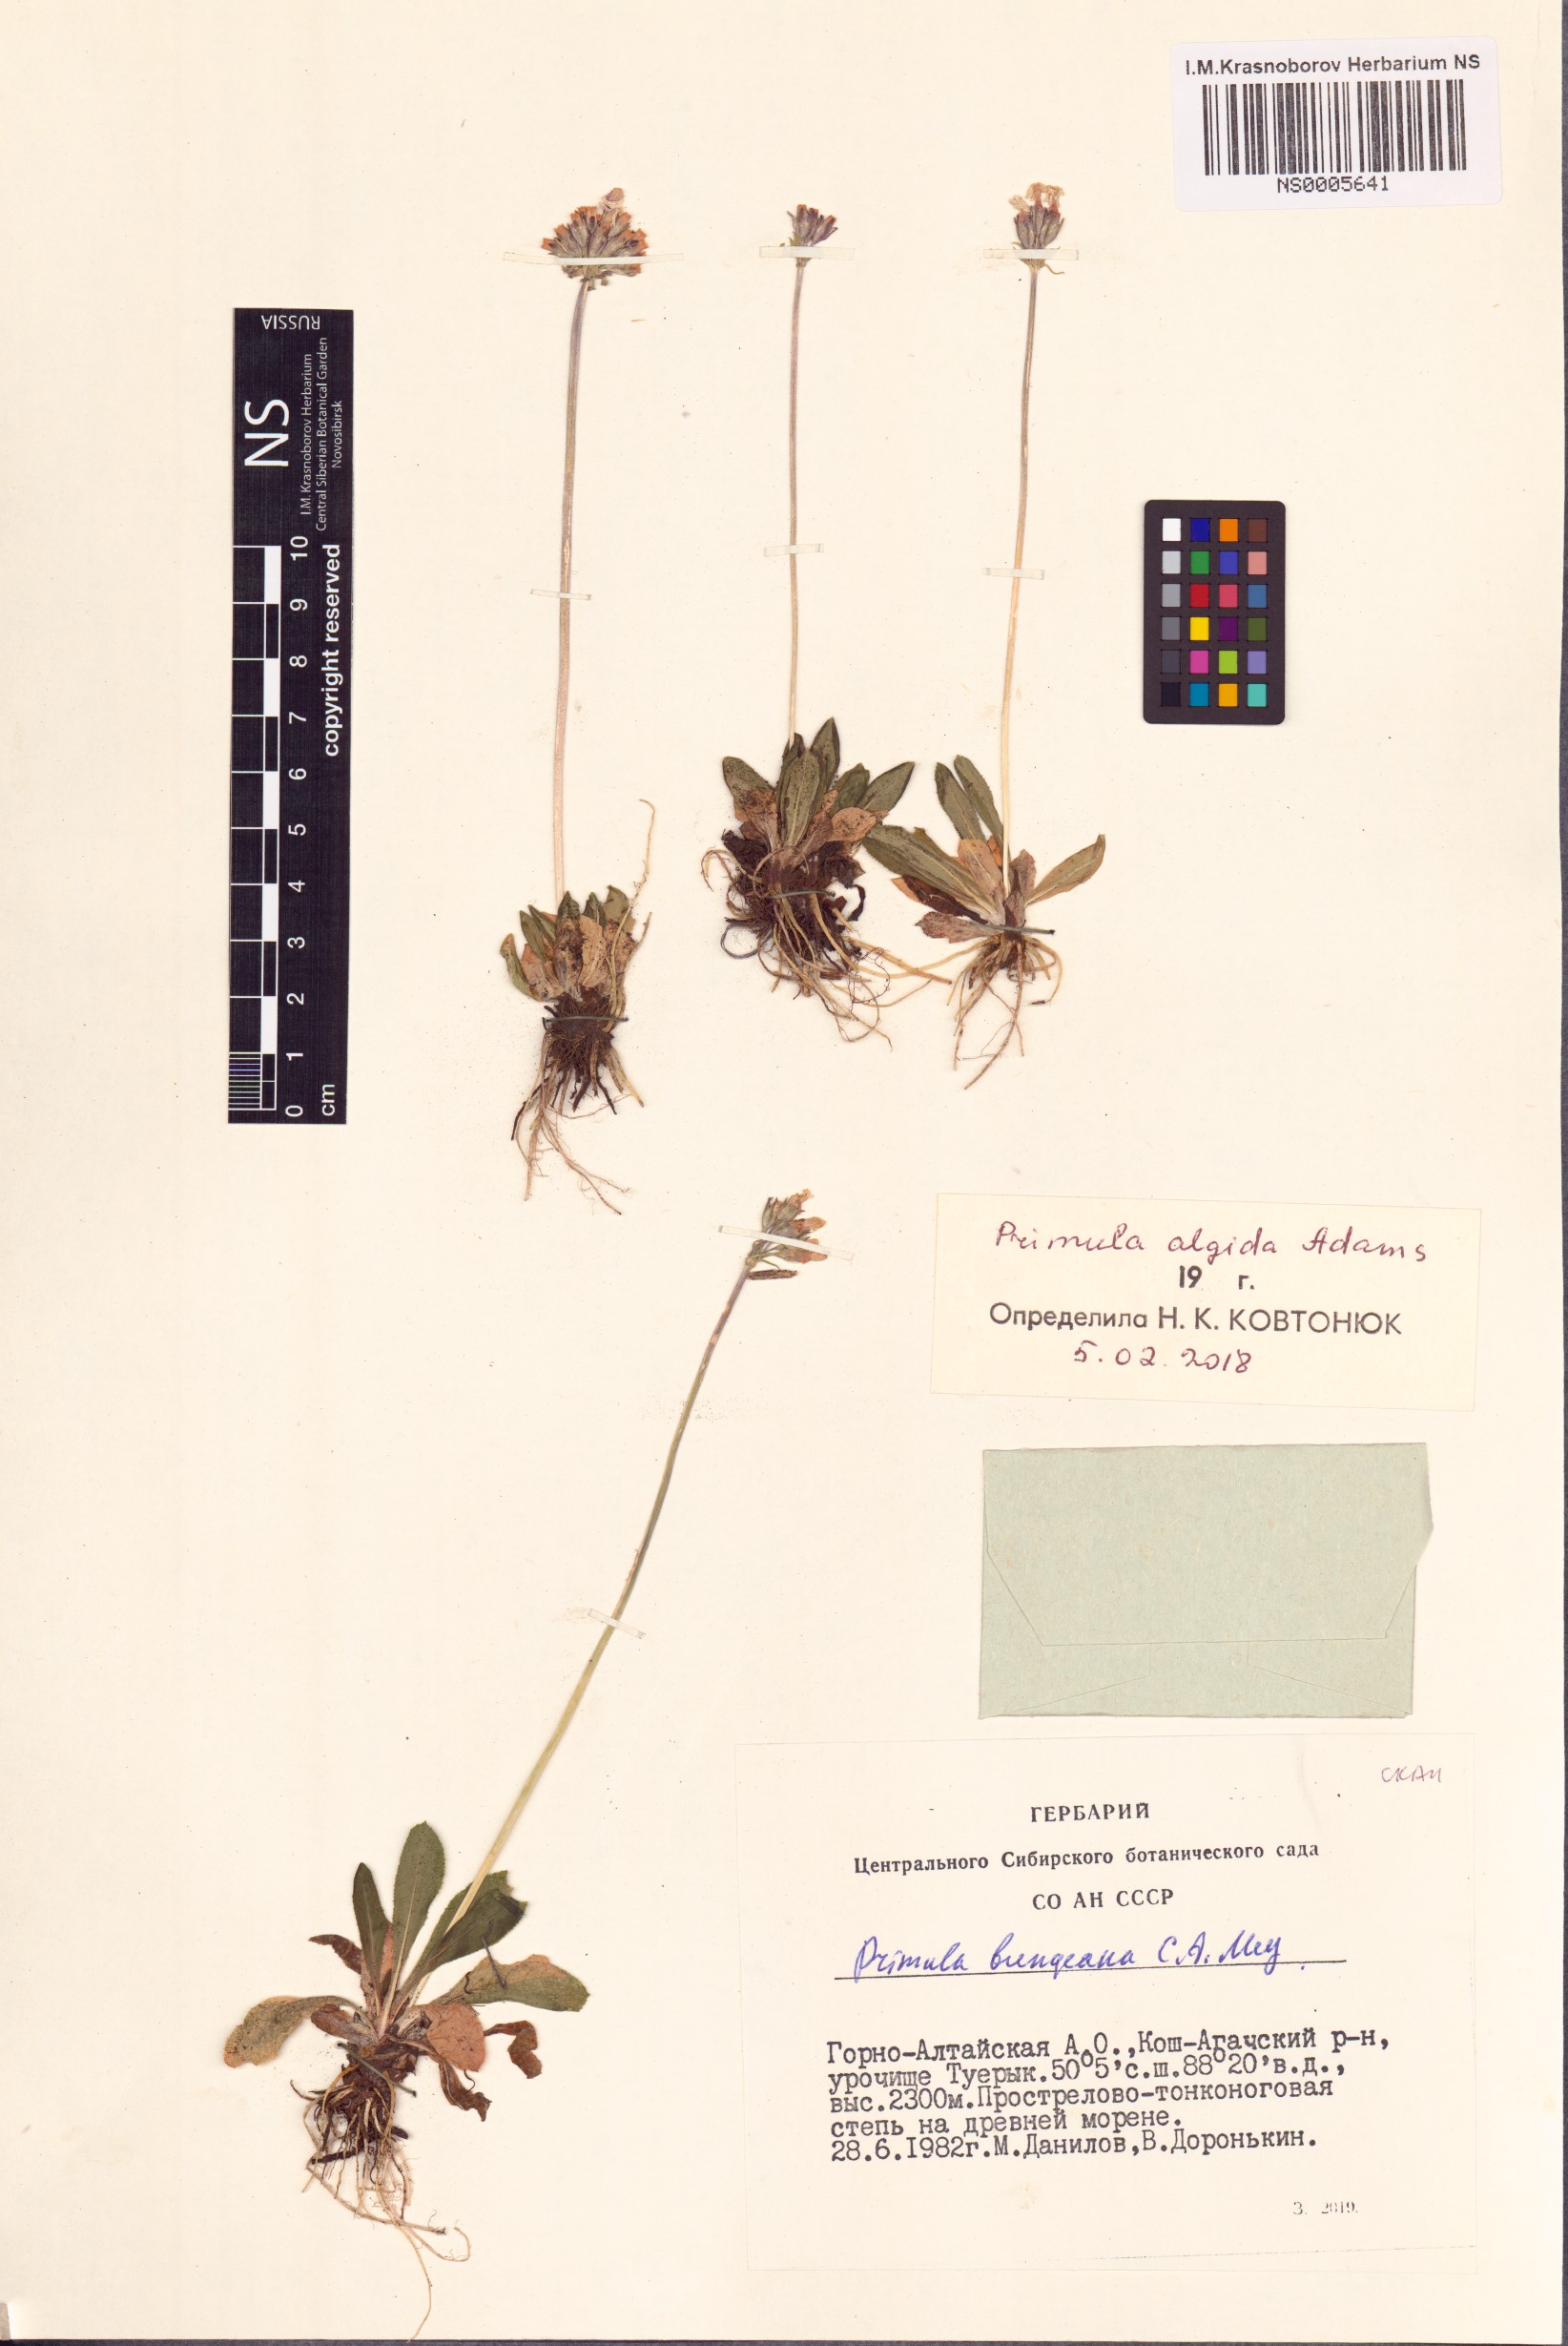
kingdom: Plantae
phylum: Tracheophyta
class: Magnoliopsida
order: Ericales
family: Primulaceae
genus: Primula
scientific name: Primula algida
